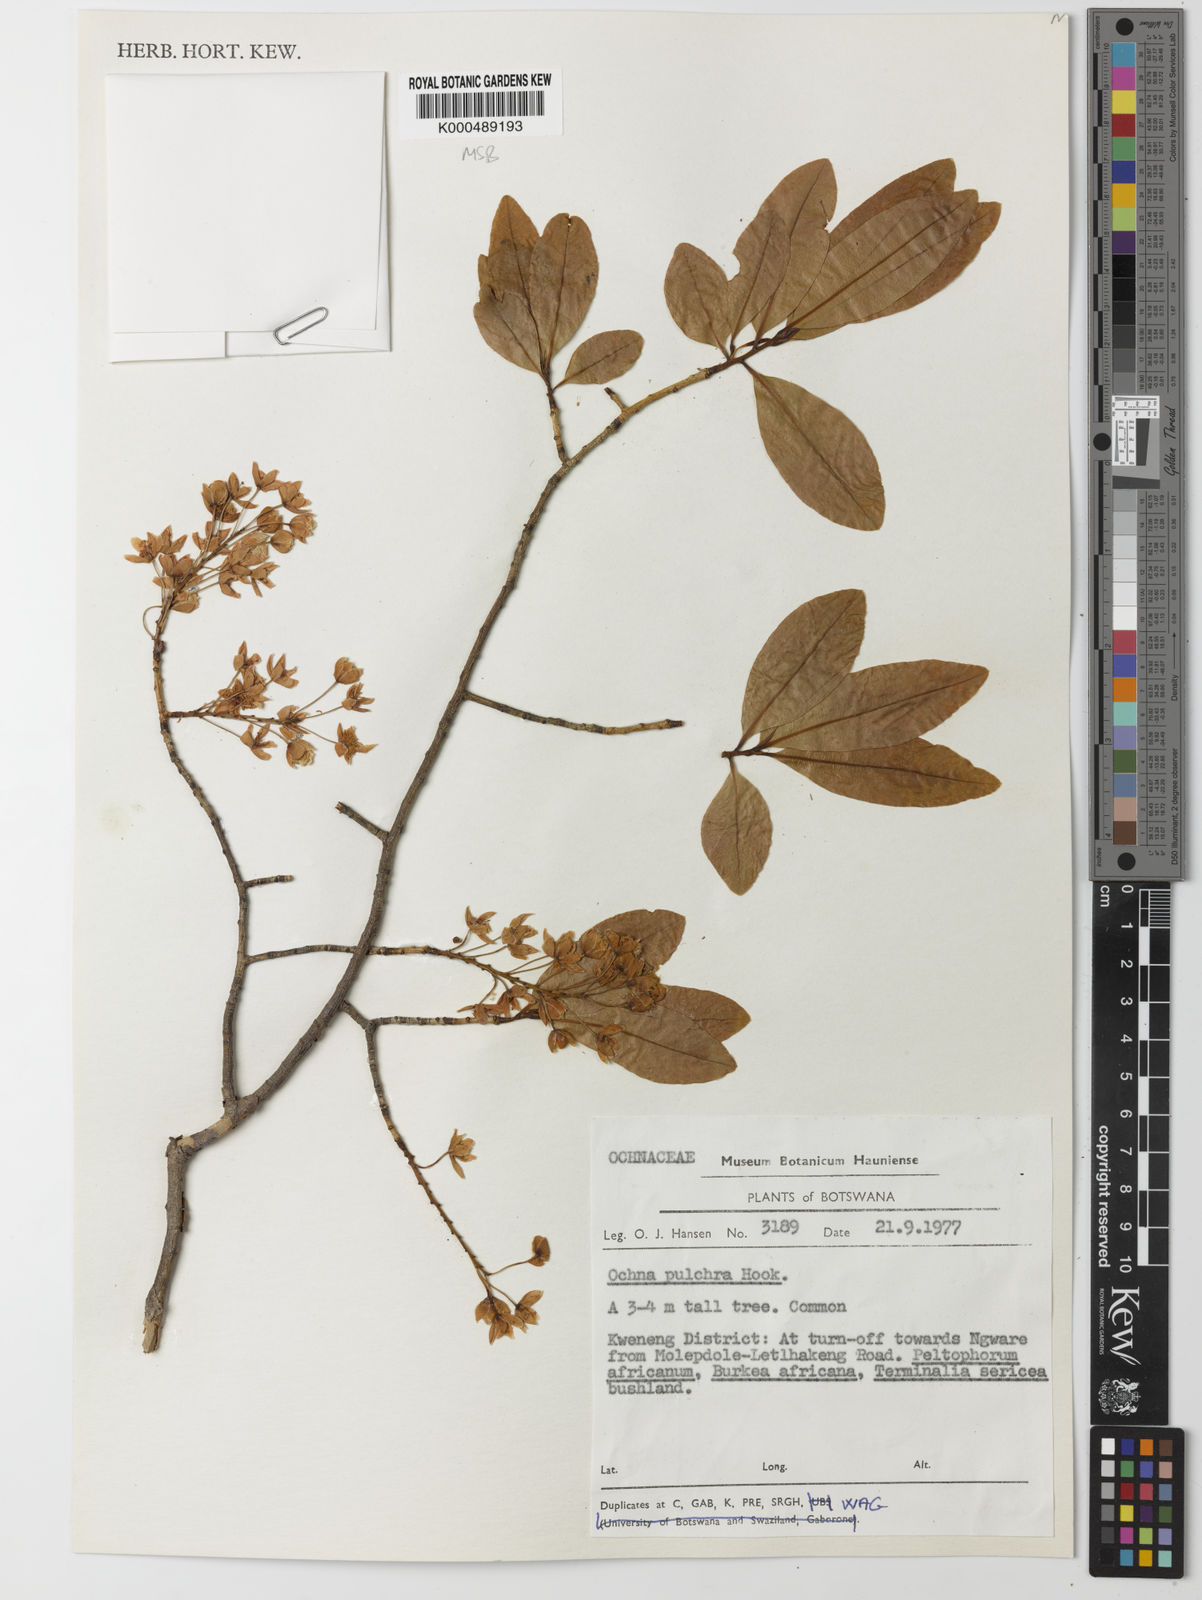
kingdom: Plantae
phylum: Tracheophyta
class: Magnoliopsida
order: Malpighiales
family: Ochnaceae
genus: Ochna
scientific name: Ochna pulchra
